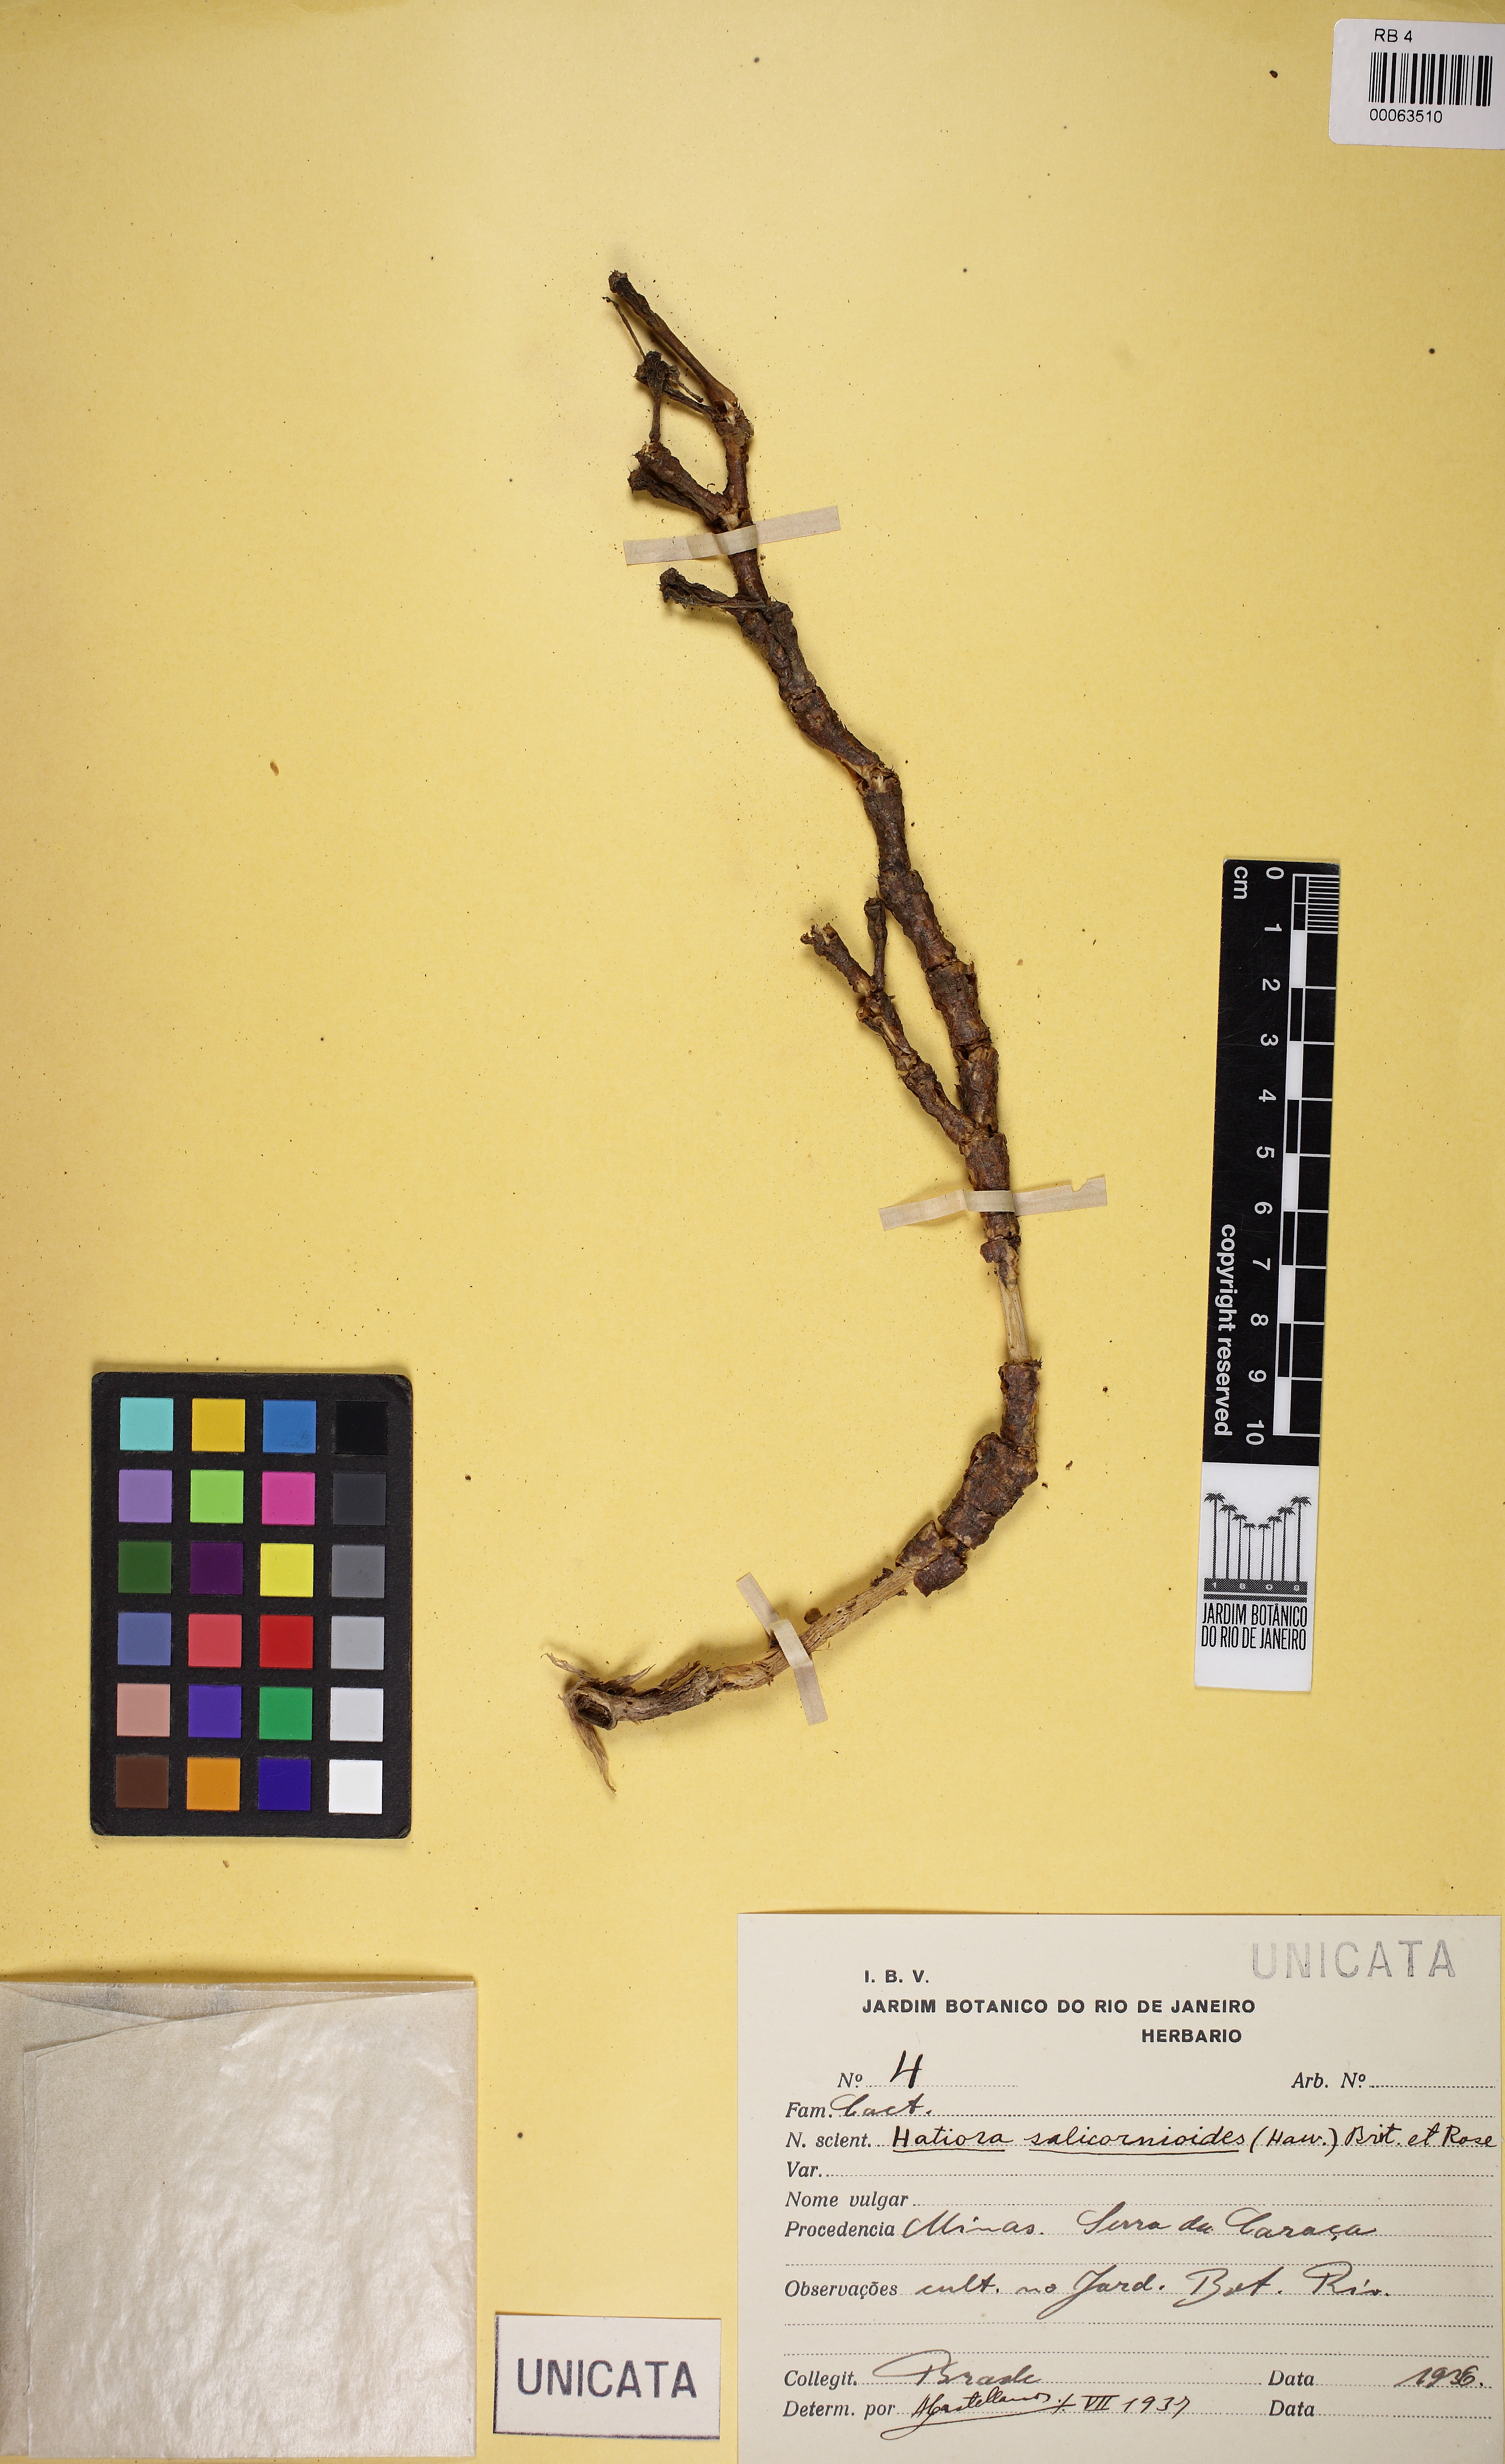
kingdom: Plantae
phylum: Tracheophyta
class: Magnoliopsida
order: Caryophyllales
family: Cactaceae
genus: Hatiora
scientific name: Hatiora salicornioides
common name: Dancing-bones
